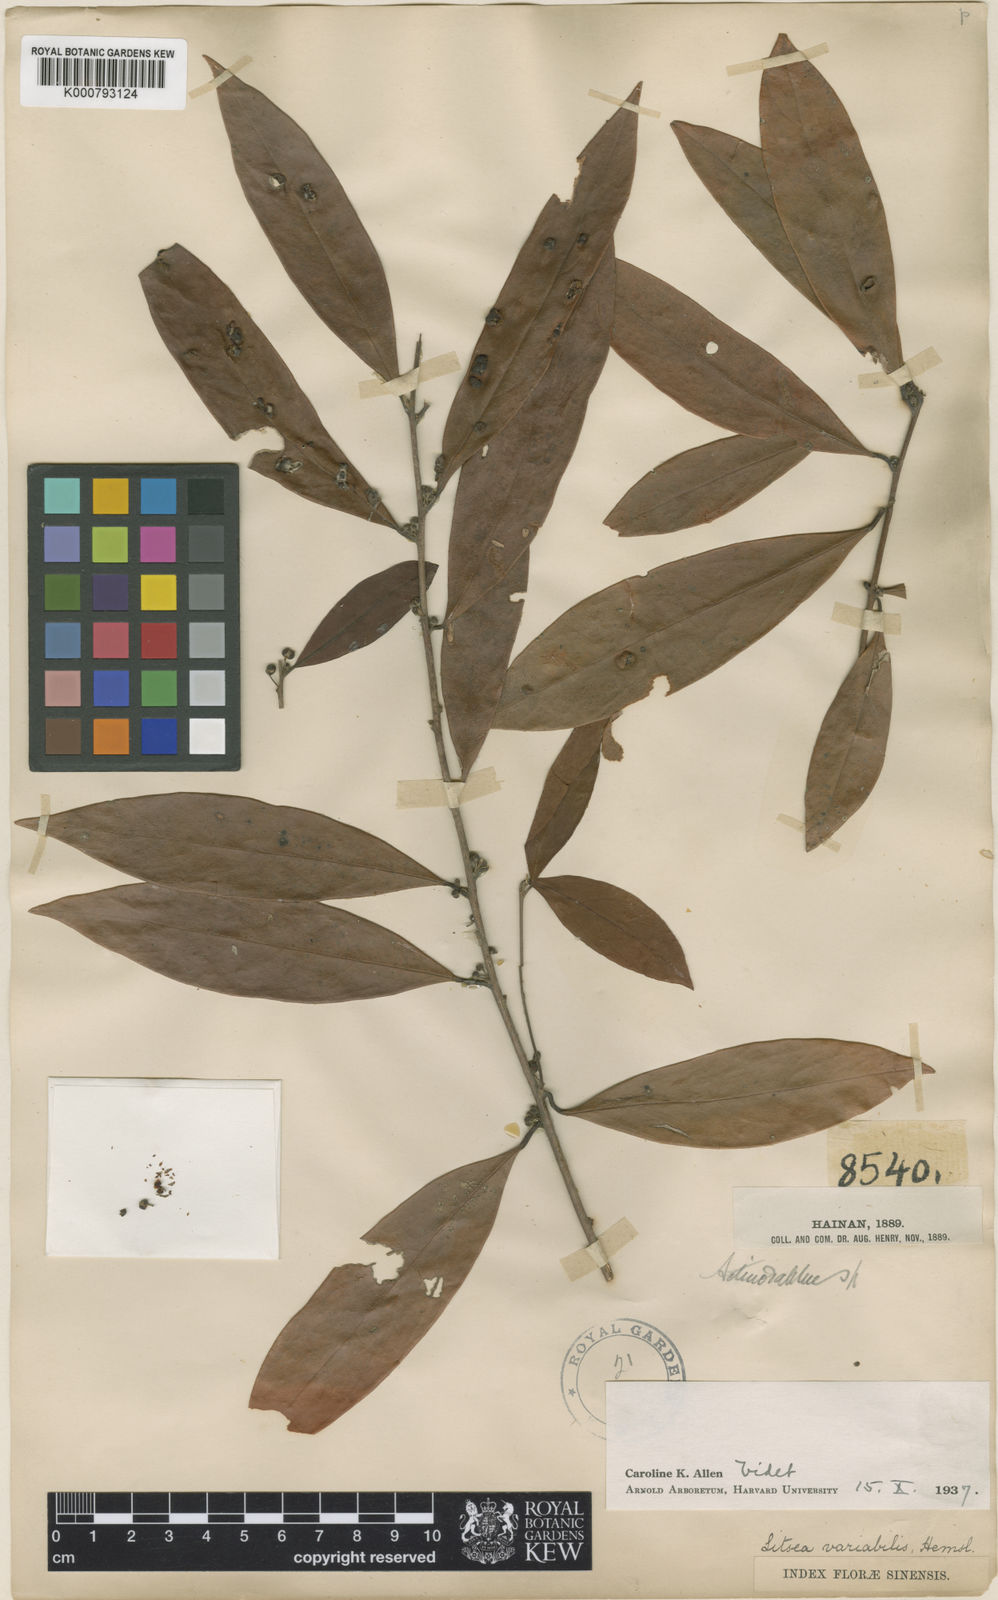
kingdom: Plantae
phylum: Tracheophyta
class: Magnoliopsida
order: Laurales
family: Lauraceae
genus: Litsea
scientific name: Litsea variabilis
